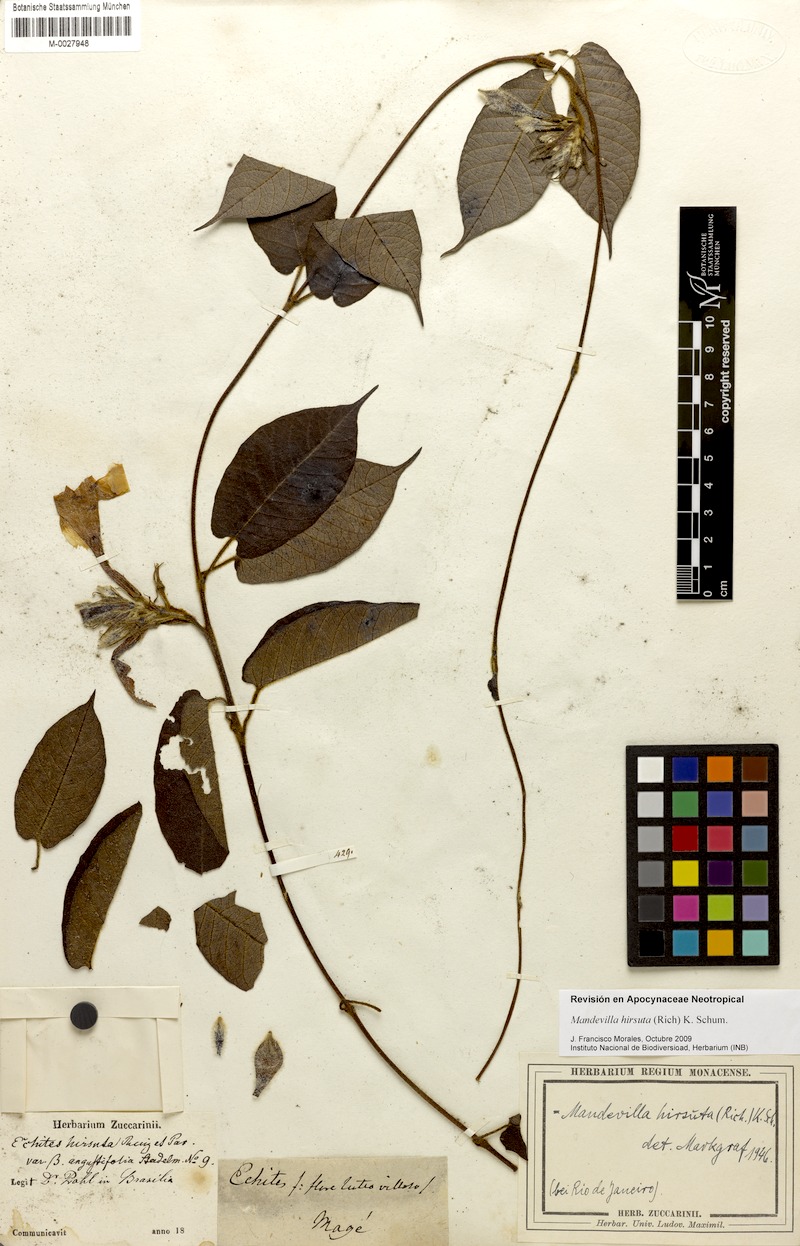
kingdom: Plantae
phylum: Tracheophyta
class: Magnoliopsida
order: Gentianales
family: Apocynaceae
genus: Mandevilla
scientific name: Mandevilla hirsuta
